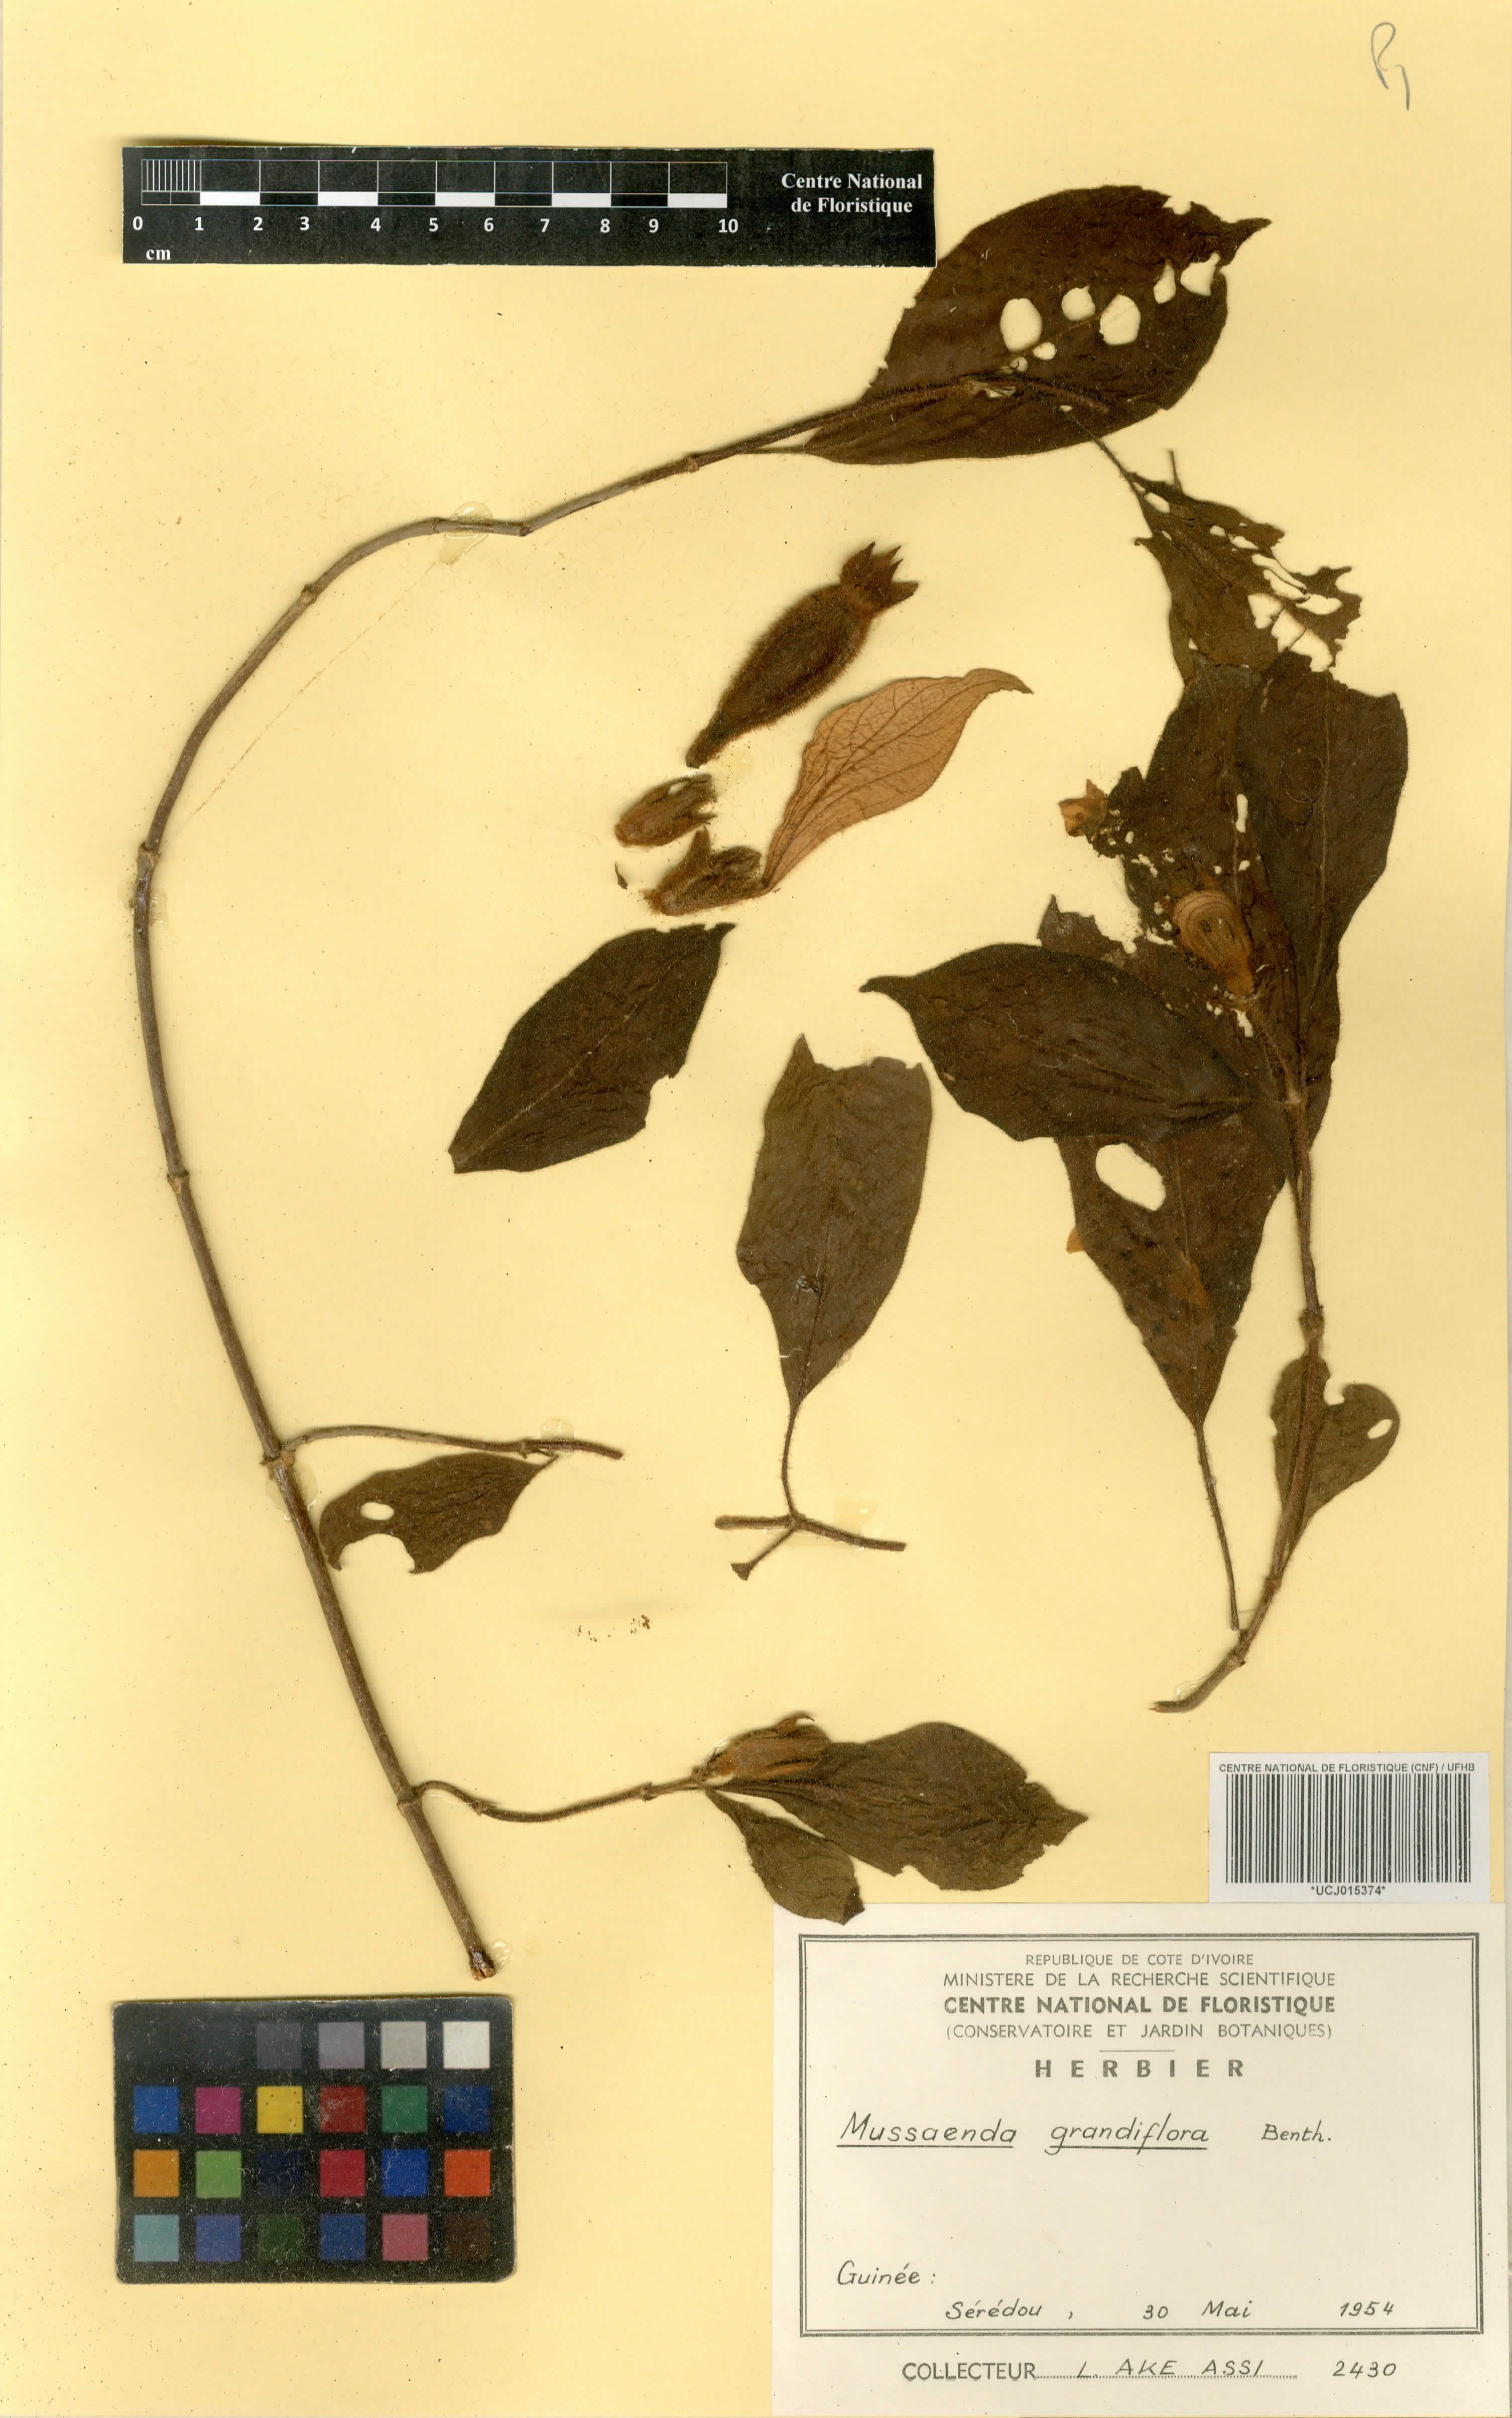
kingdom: Plantae
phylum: Tracheophyta
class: Magnoliopsida
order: Gentianales
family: Rubiaceae
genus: Mussaenda
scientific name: Mussaenda grandiflora
